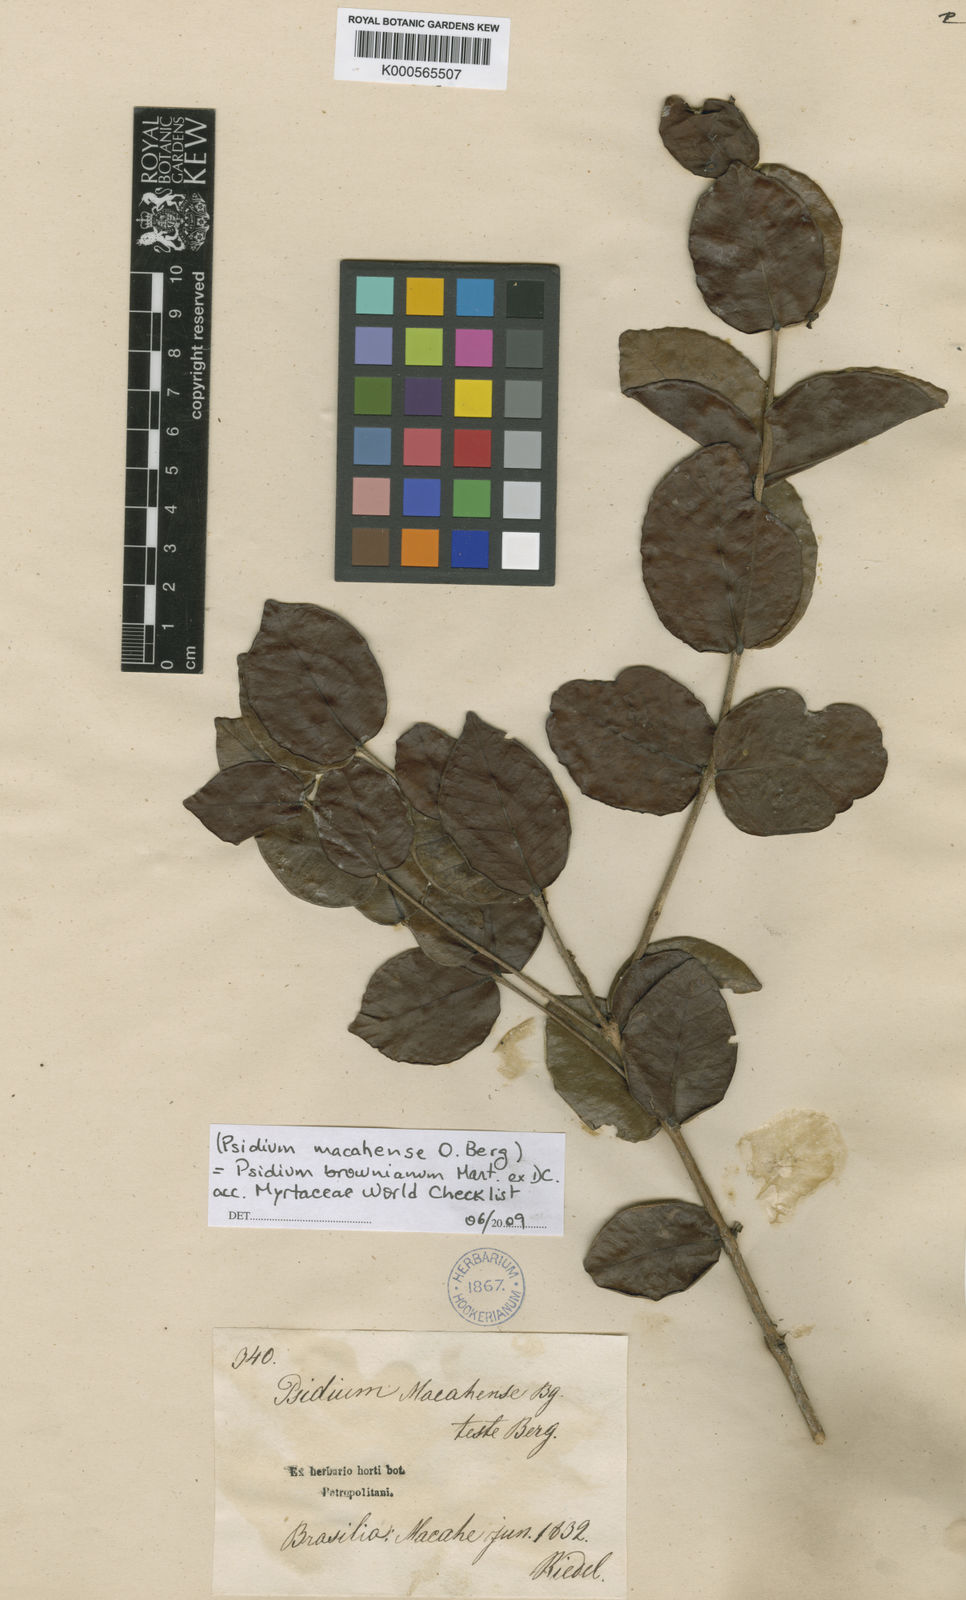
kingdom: Plantae
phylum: Tracheophyta
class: Magnoliopsida
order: Myrtales
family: Myrtaceae
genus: Psidium
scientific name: Psidium brownianum
